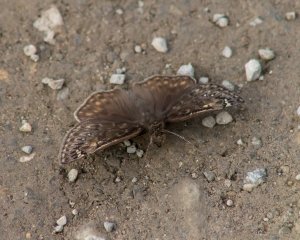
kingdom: Animalia
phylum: Arthropoda
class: Insecta
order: Lepidoptera
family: Hesperiidae
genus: Erynnis
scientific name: Erynnis
